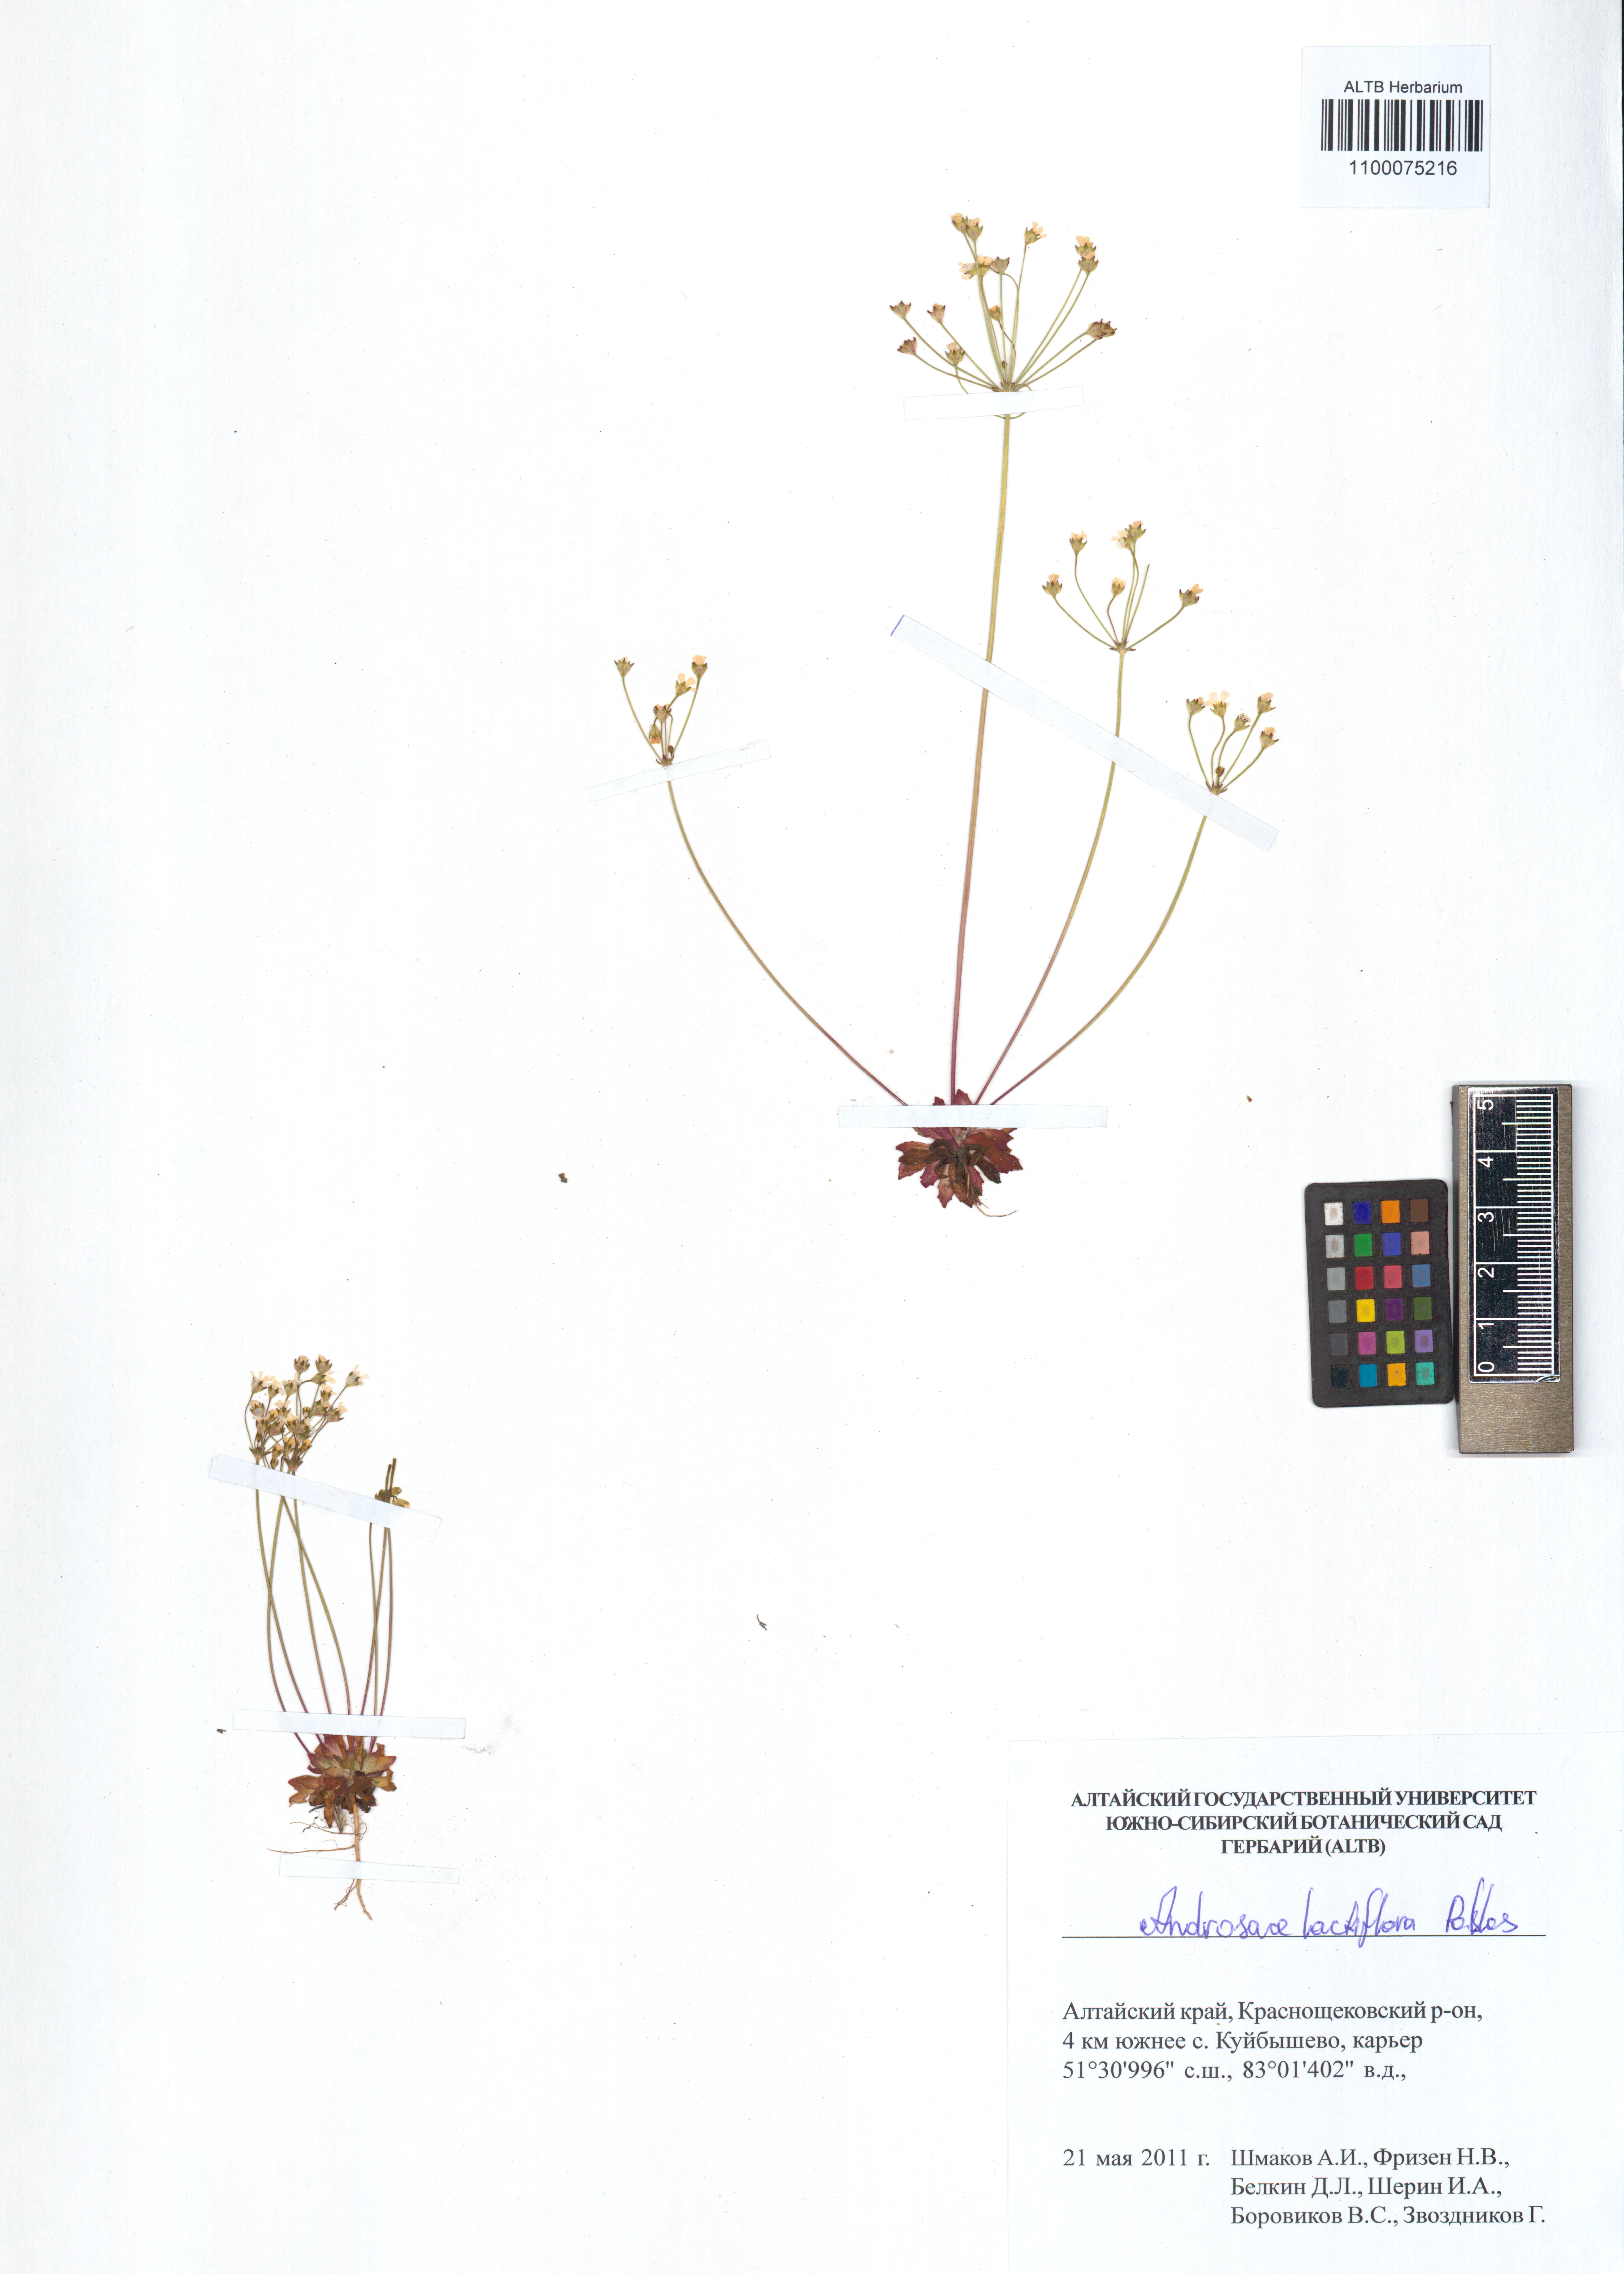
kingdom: Plantae
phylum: Tracheophyta
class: Magnoliopsida
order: Ericales
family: Primulaceae
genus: Androsace
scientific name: Androsace lactiflora
